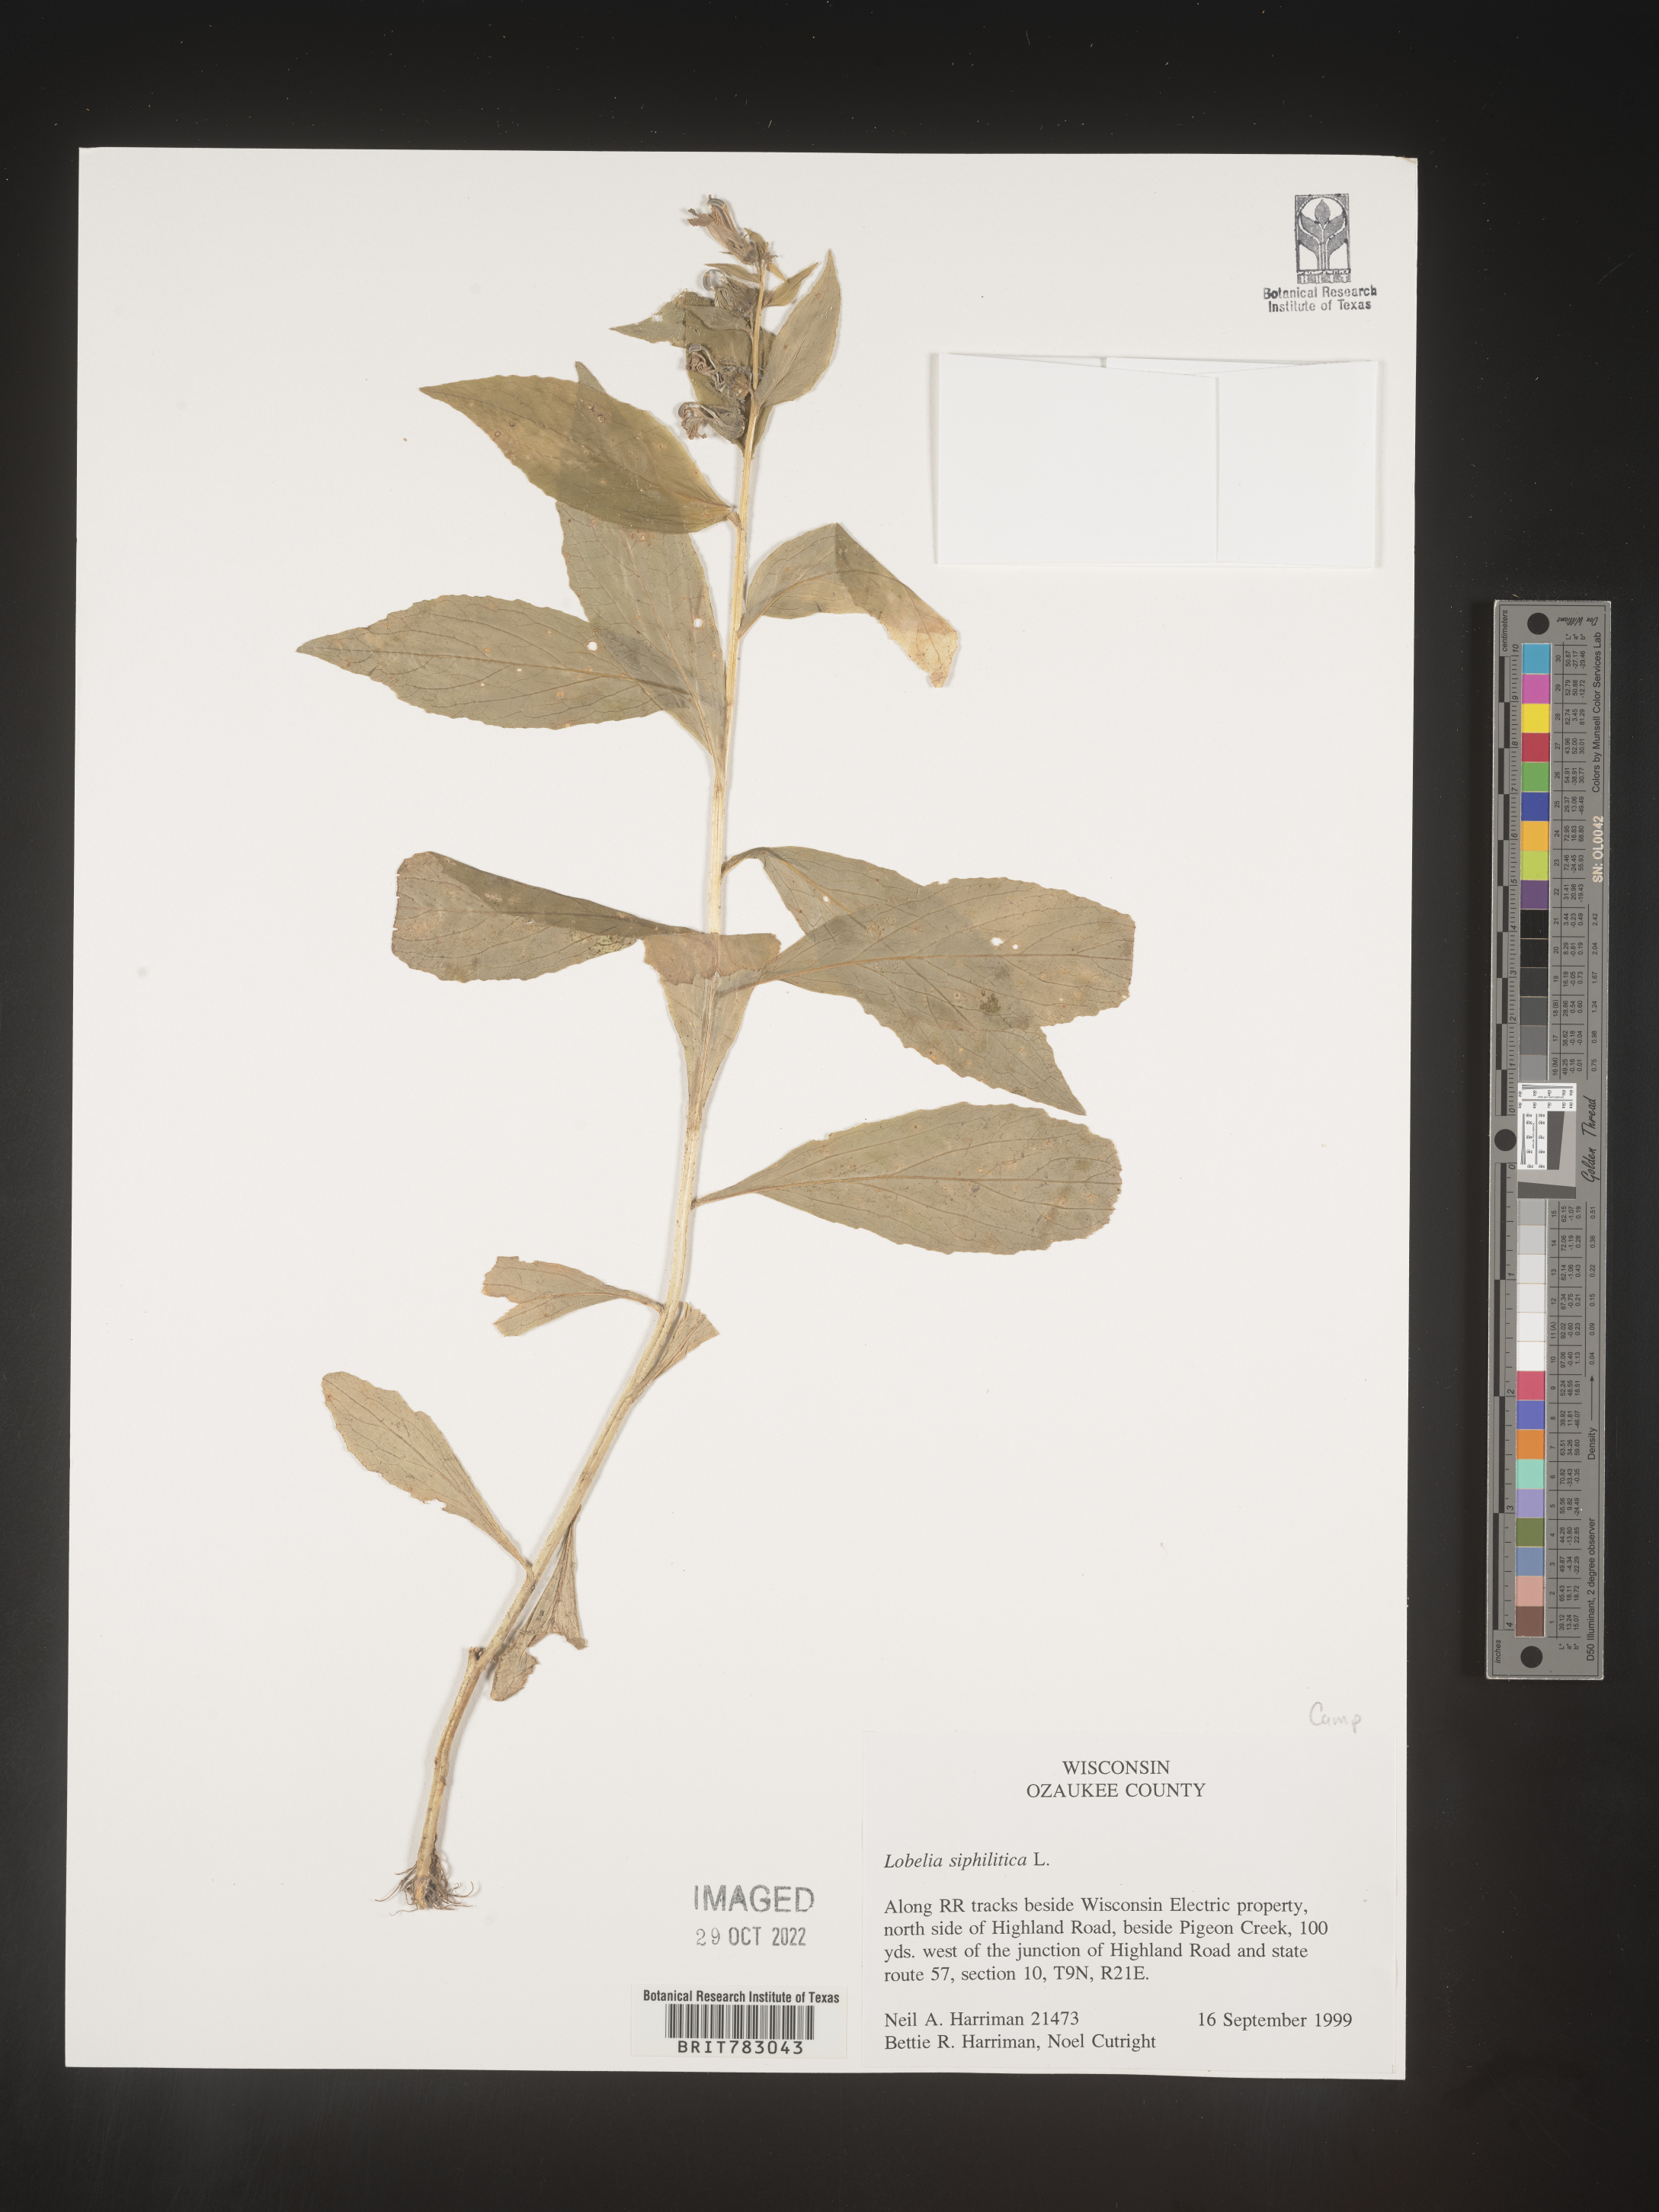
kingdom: Plantae
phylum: Tracheophyta
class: Magnoliopsida
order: Asterales
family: Campanulaceae
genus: Lobelia
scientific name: Lobelia siphilitica
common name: Great lobelia
